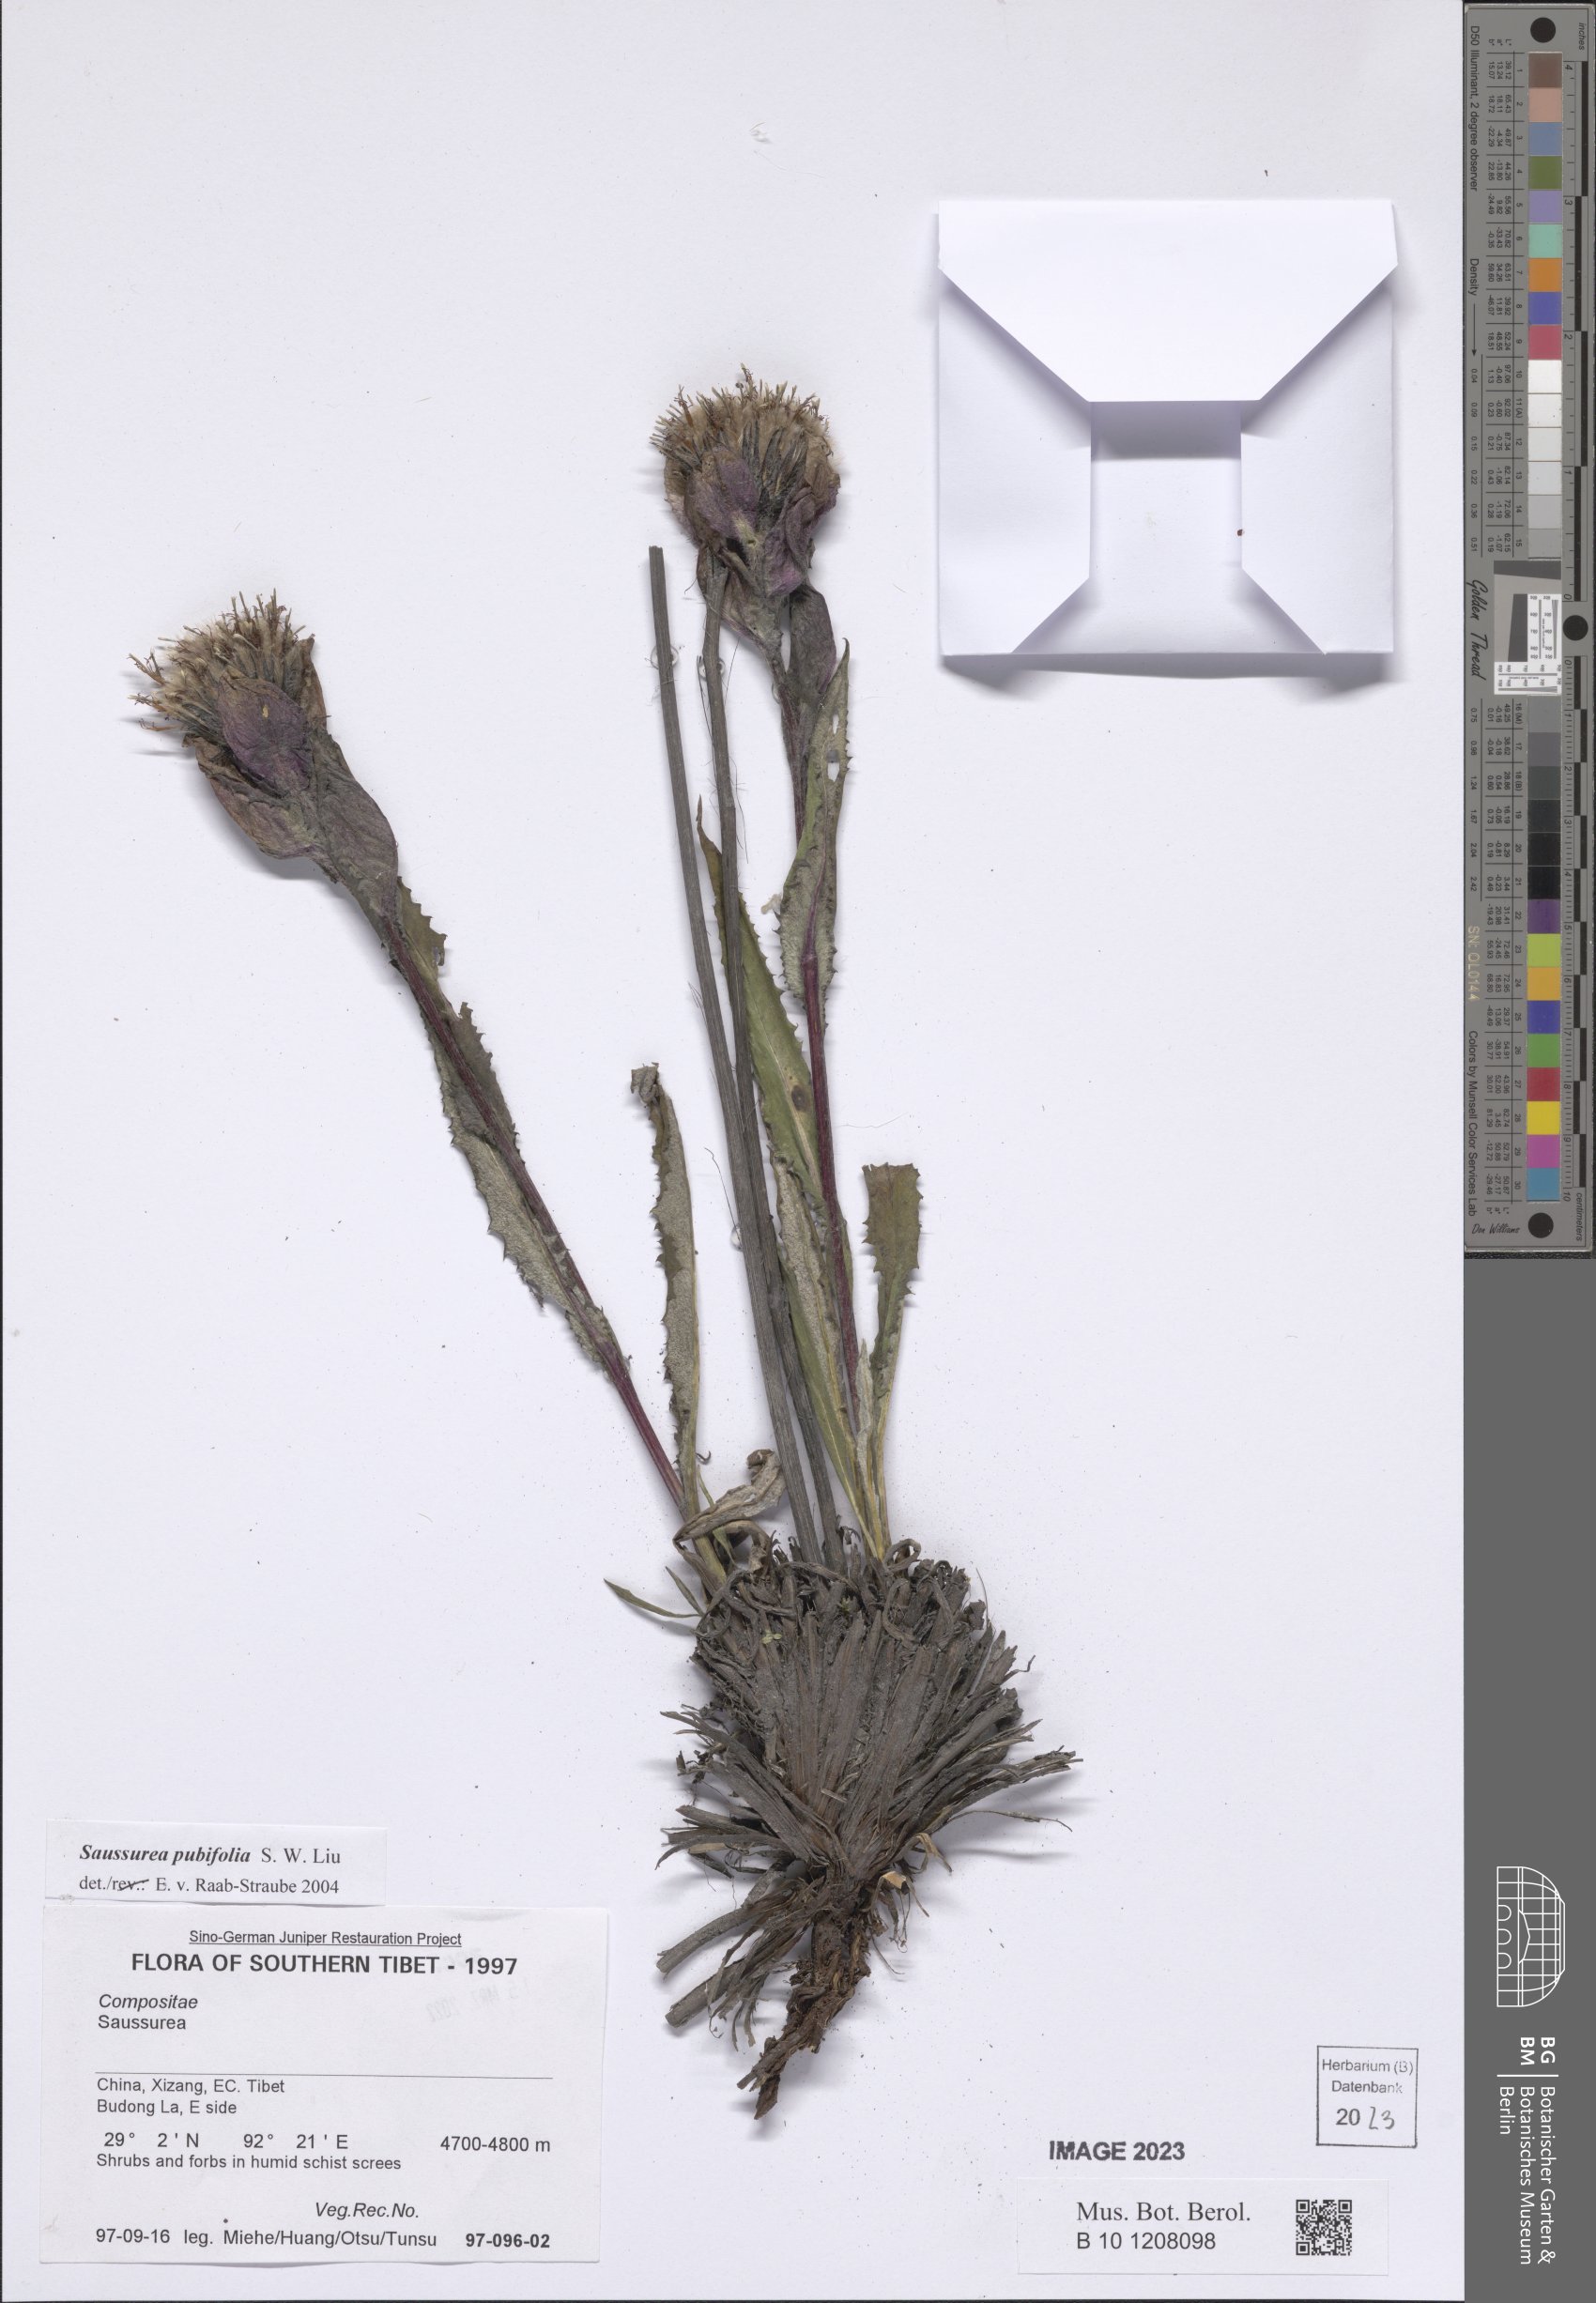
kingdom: Plantae
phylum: Tracheophyta
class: Magnoliopsida
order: Asterales
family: Asteraceae
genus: Saussurea
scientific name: Saussurea pubifolia
